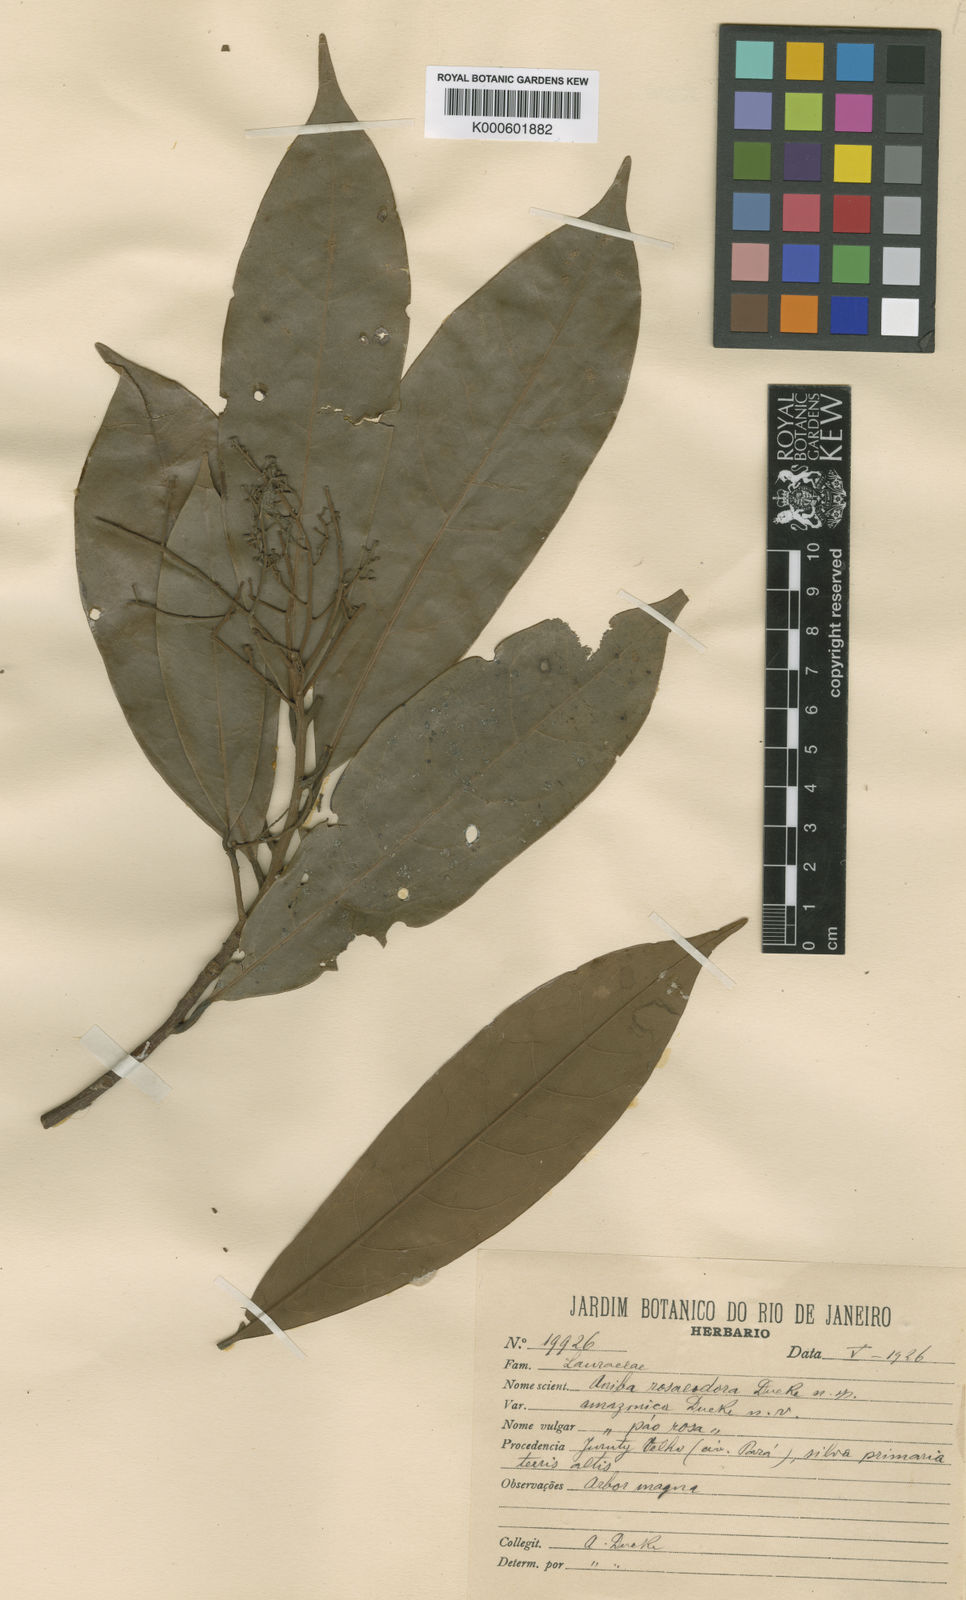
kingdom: Plantae
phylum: Tracheophyta
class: Magnoliopsida
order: Laurales
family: Lauraceae
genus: Aniba
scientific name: Aniba rosaeodora
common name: Brazilian rosewood
